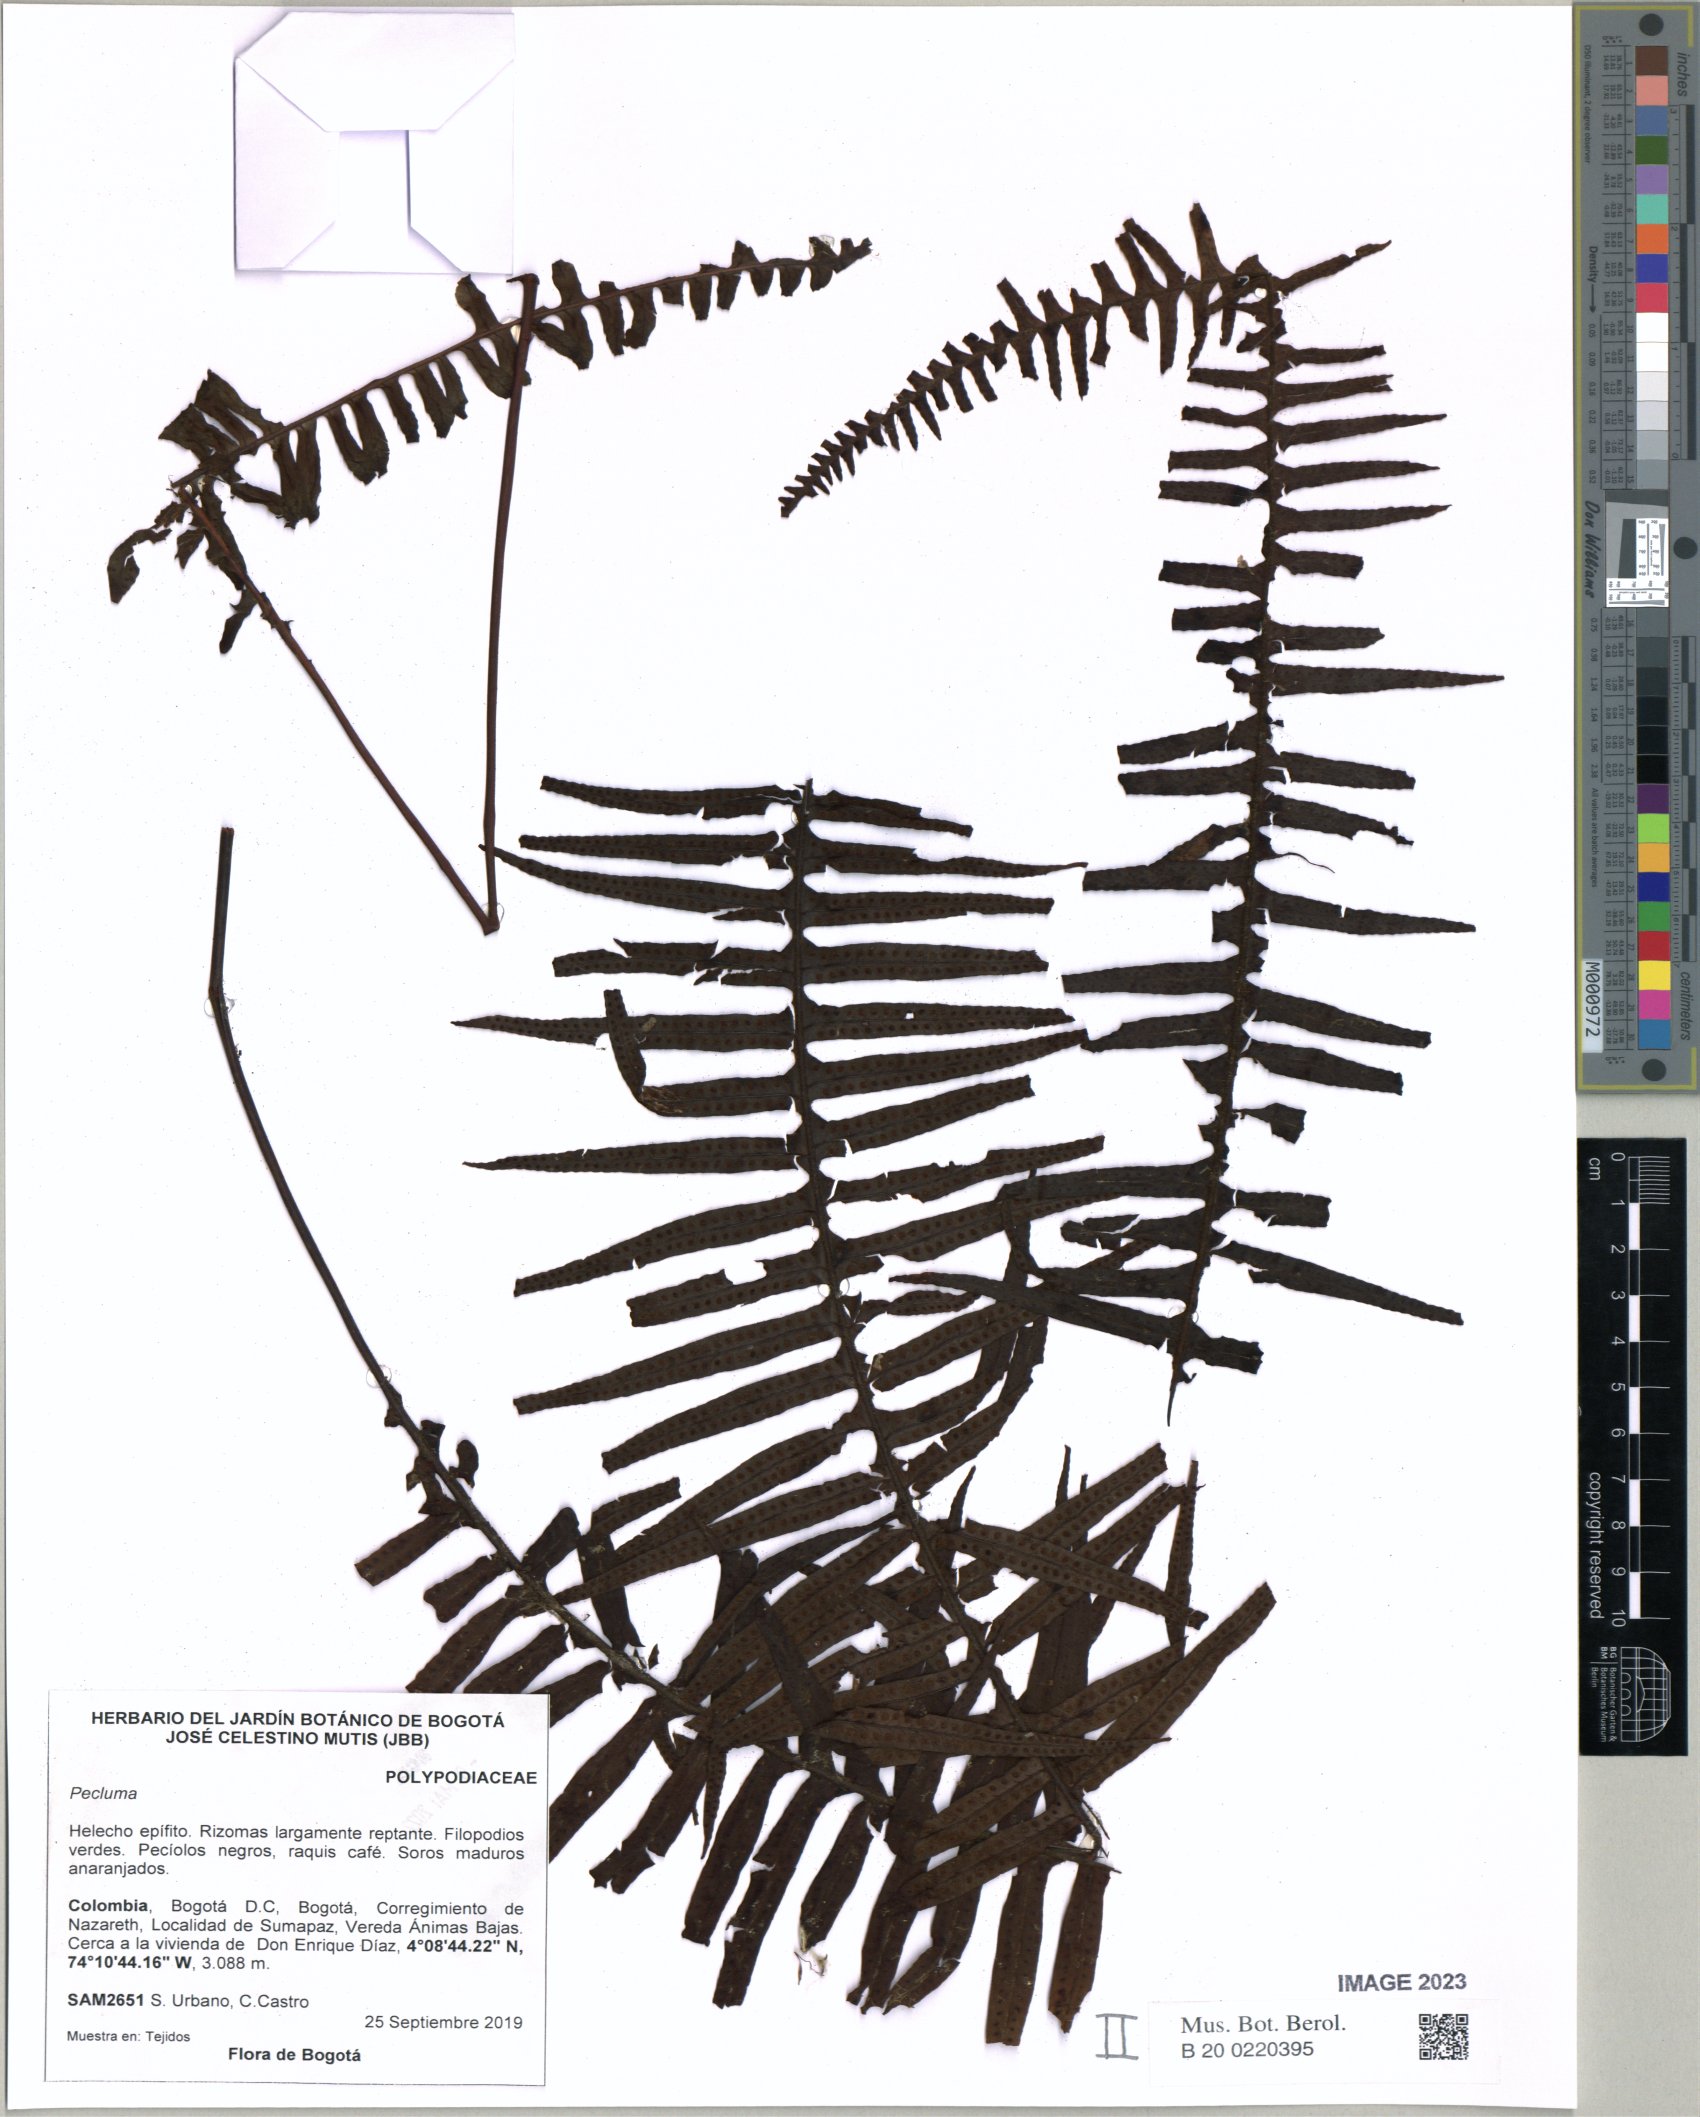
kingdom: Plantae
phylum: Tracheophyta
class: Polypodiopsida
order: Polypodiales
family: Polypodiaceae
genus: Pecluma
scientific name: Pecluma
